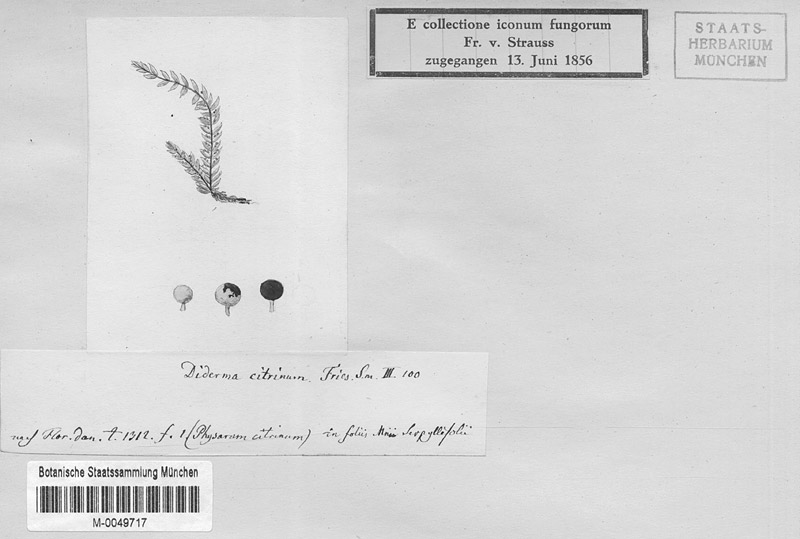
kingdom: Protozoa
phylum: Mycetozoa
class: Myxomycetes
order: Physarales
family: Physaraceae
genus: Physarum
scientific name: Physarum flavidum
